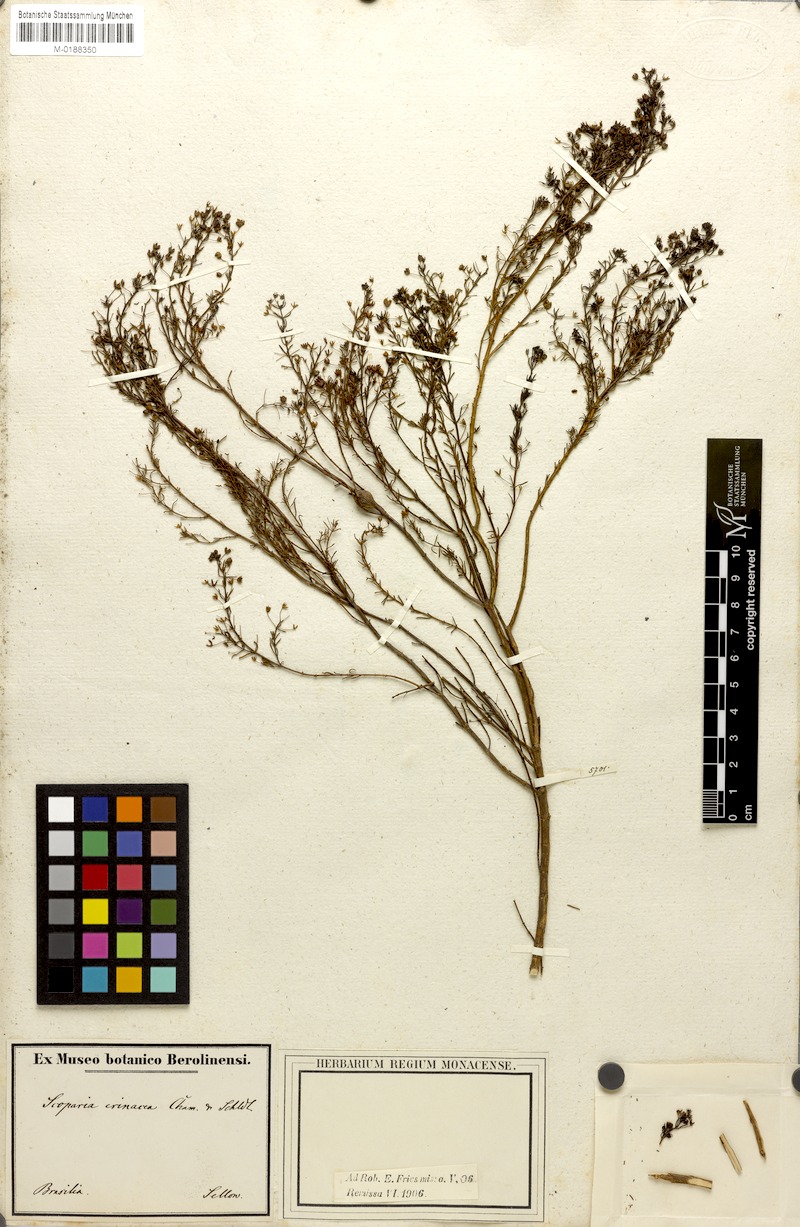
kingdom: Plantae
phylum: Tracheophyta
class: Magnoliopsida
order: Lamiales
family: Plantaginaceae
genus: Scoparia
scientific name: Scoparia ericacea
